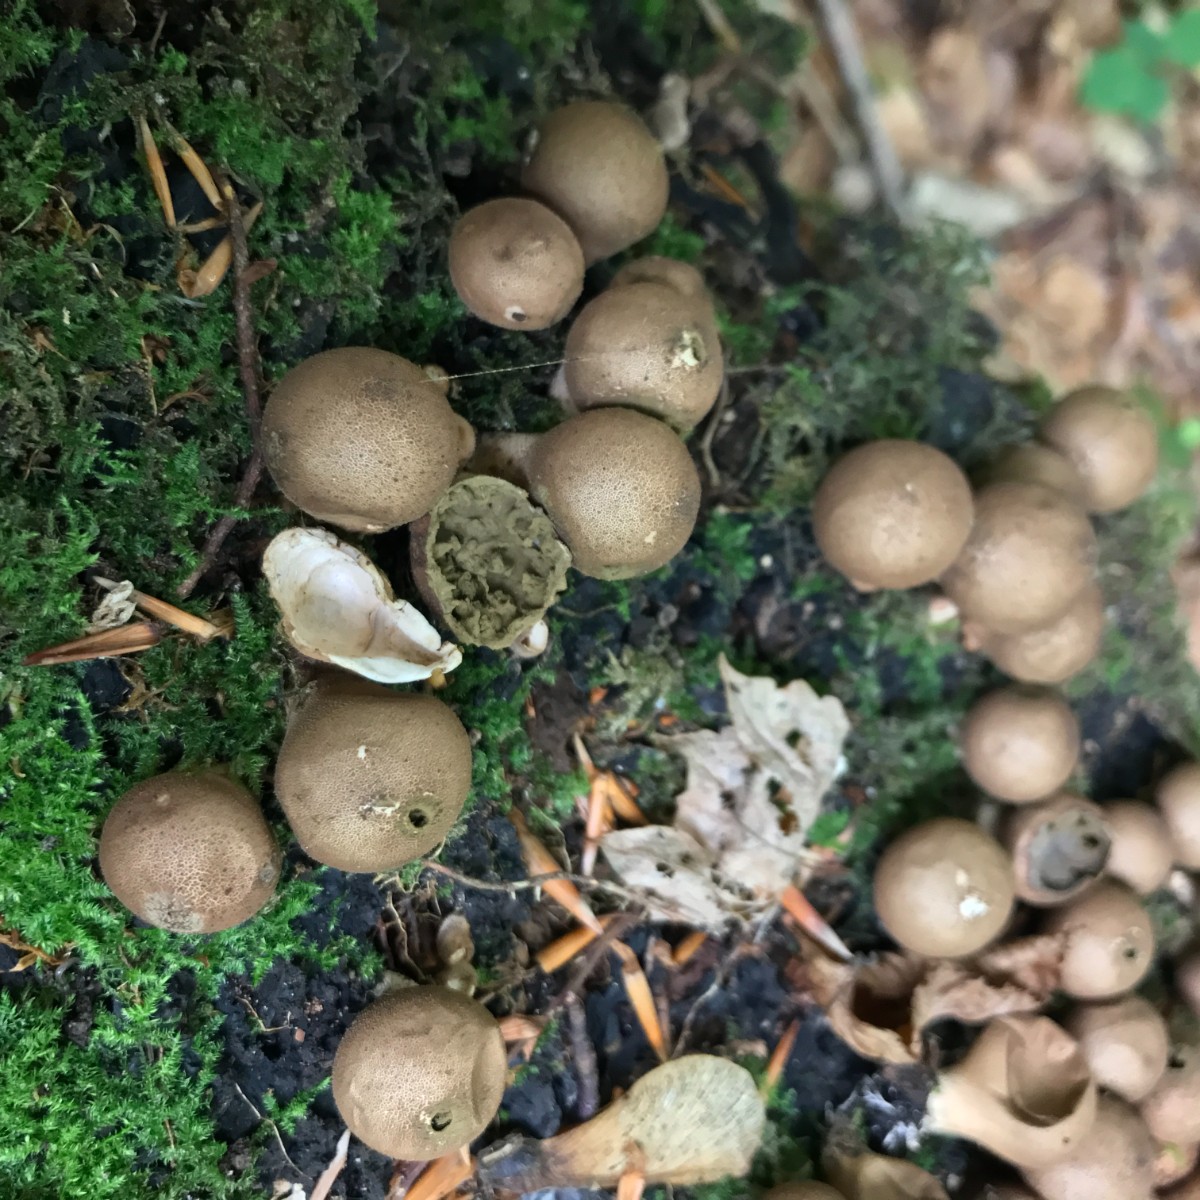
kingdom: Fungi
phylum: Basidiomycota
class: Agaricomycetes
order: Agaricales
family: Lycoperdaceae
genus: Apioperdon
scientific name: Apioperdon pyriforme
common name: pære-støvbold
